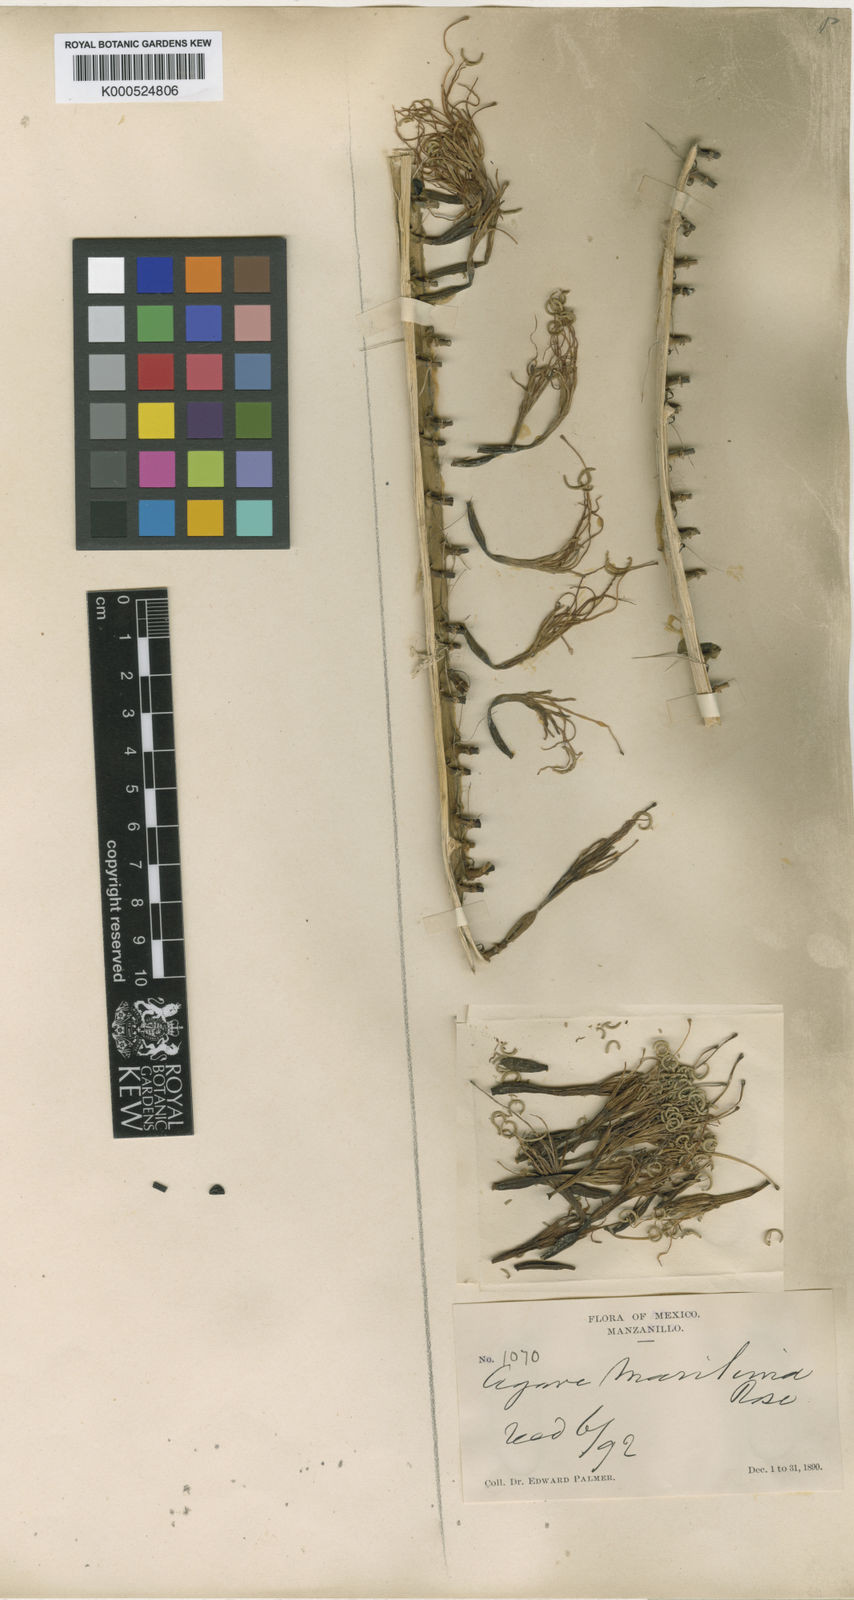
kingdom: Plantae
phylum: Tracheophyta
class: Liliopsida
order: Asparagales
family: Asparagaceae
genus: Agave
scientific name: Agave ortgiesiana
